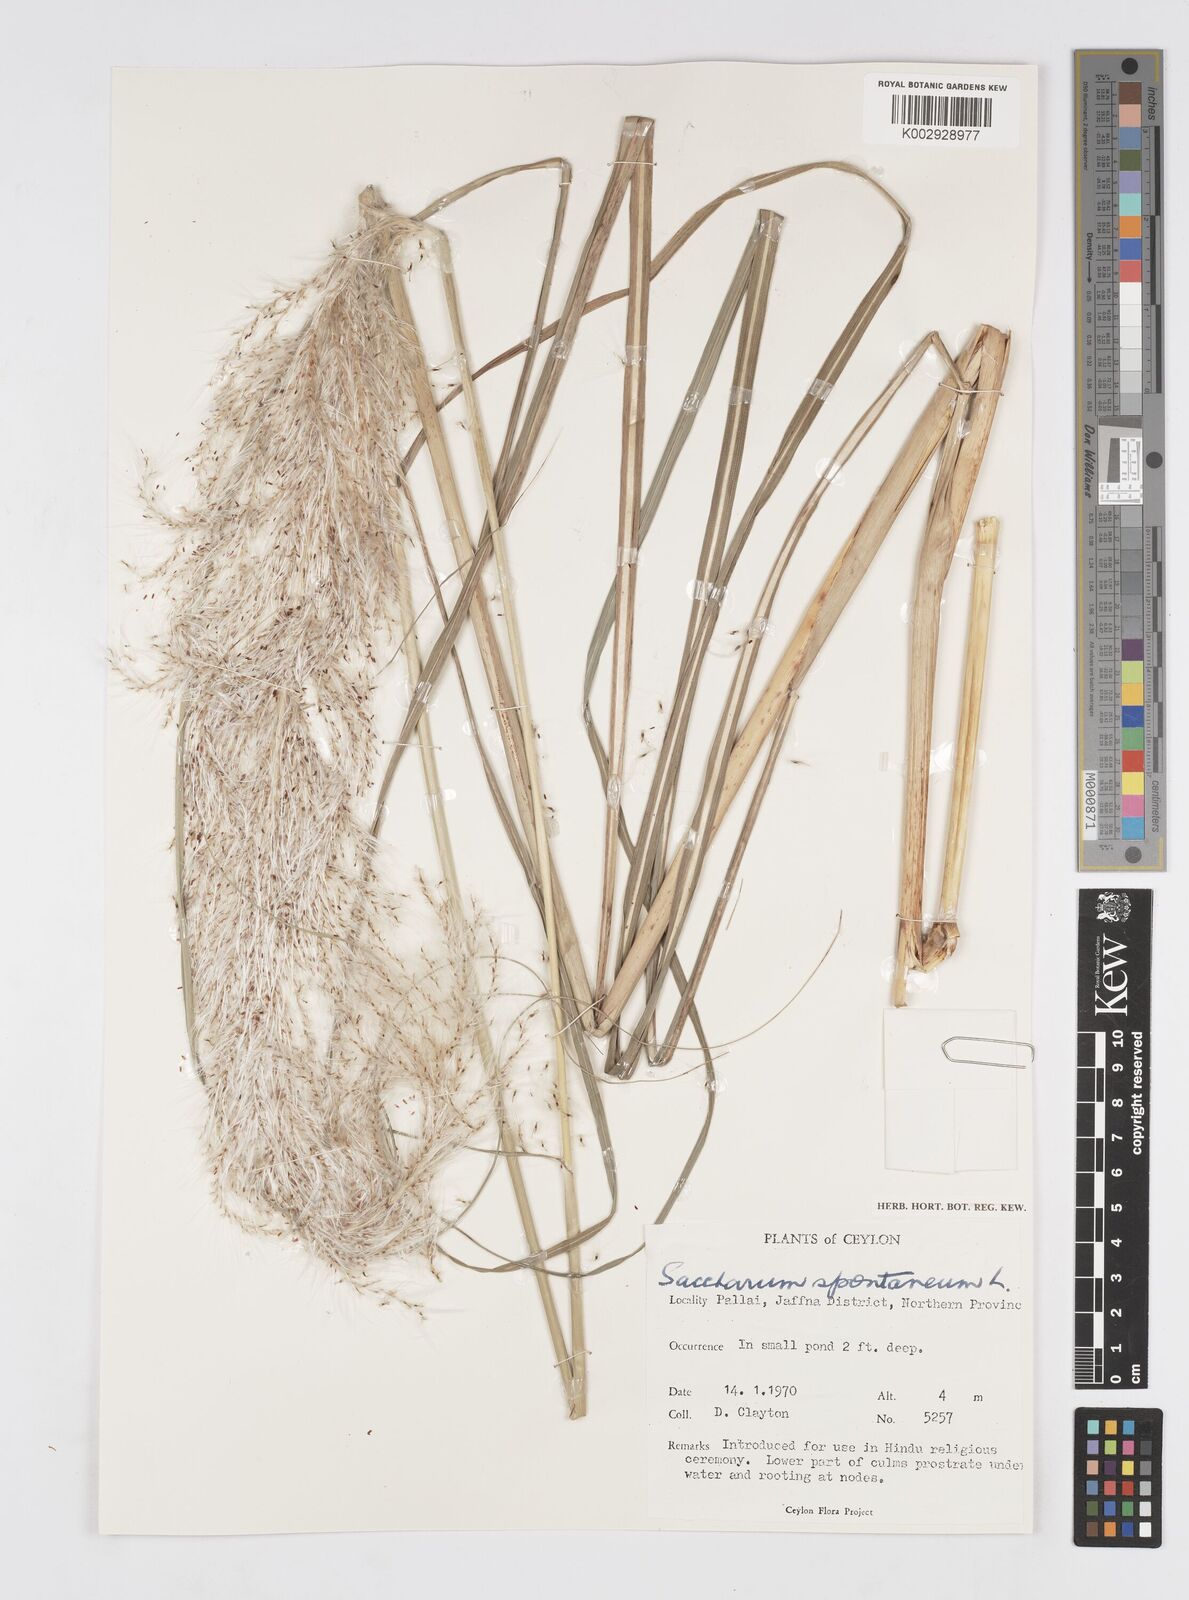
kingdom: Plantae
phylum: Tracheophyta
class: Liliopsida
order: Poales
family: Poaceae
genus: Saccharum
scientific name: Saccharum spontaneum
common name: Wild sugarcane
